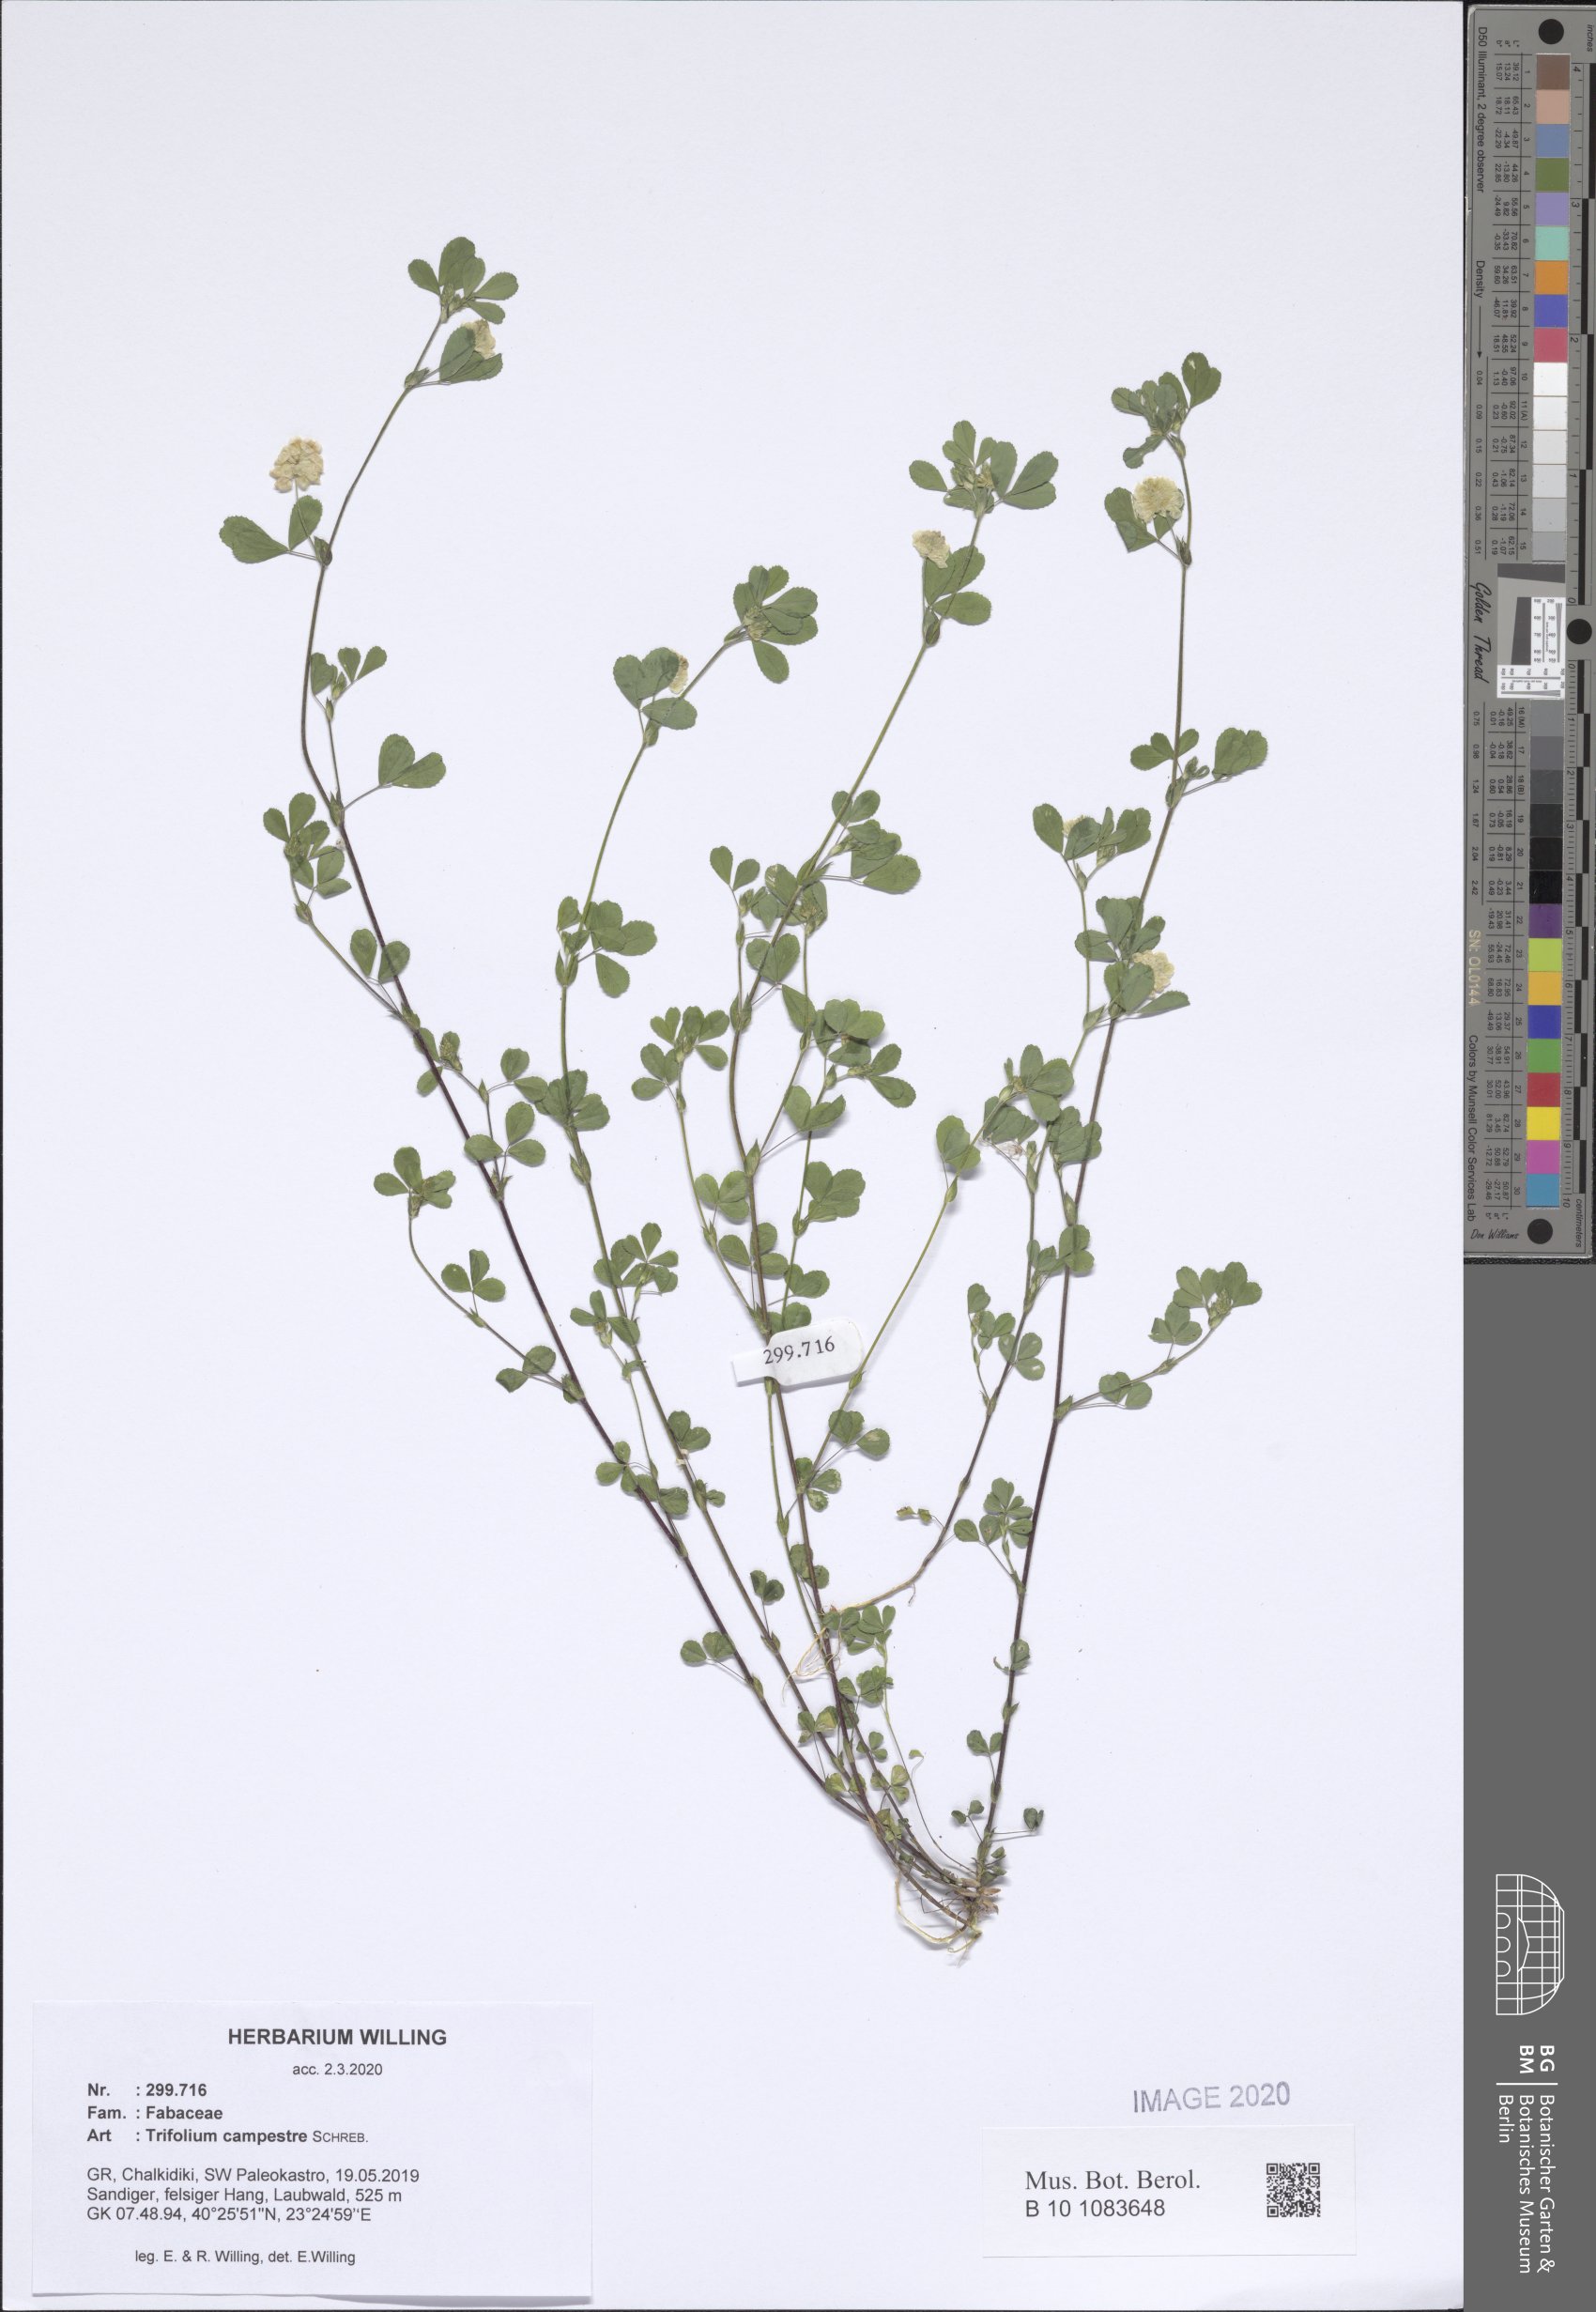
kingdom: Plantae
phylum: Tracheophyta
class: Magnoliopsida
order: Fabales
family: Fabaceae
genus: Trifolium
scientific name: Trifolium pratense
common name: Red clover
